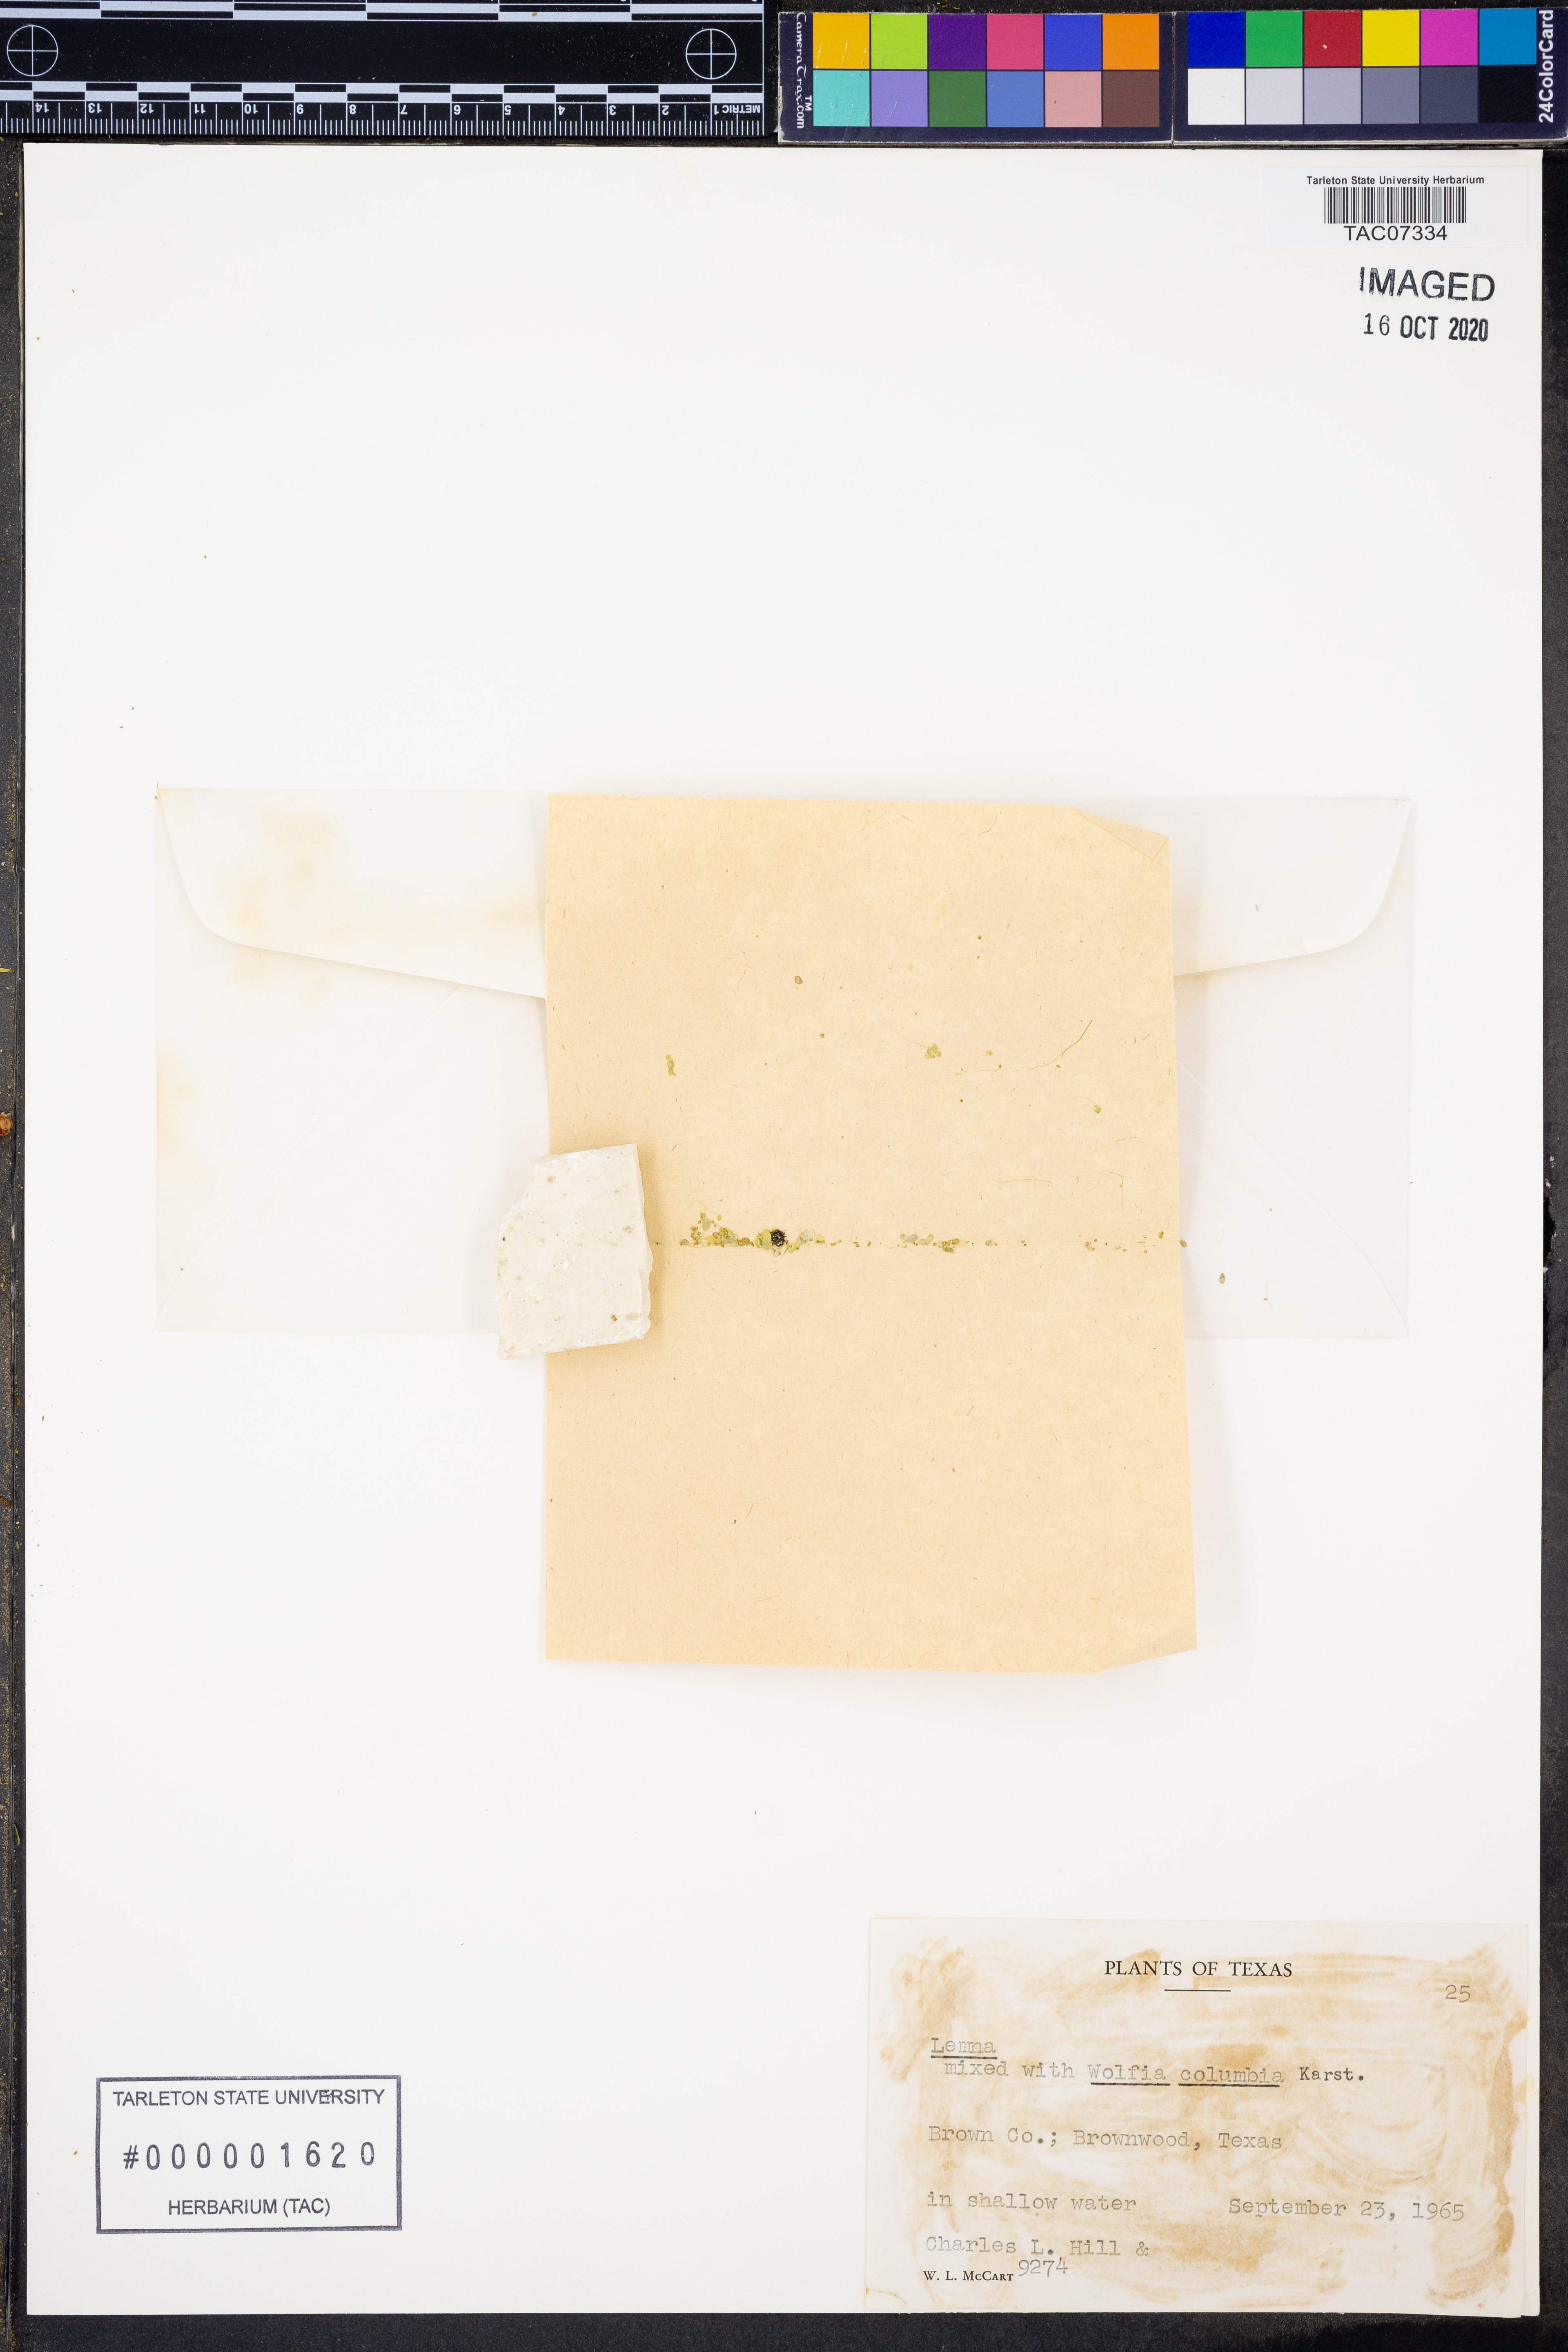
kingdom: Plantae
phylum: Tracheophyta
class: Liliopsida
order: Alismatales
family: Araceae
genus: Lemna
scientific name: Lemna
